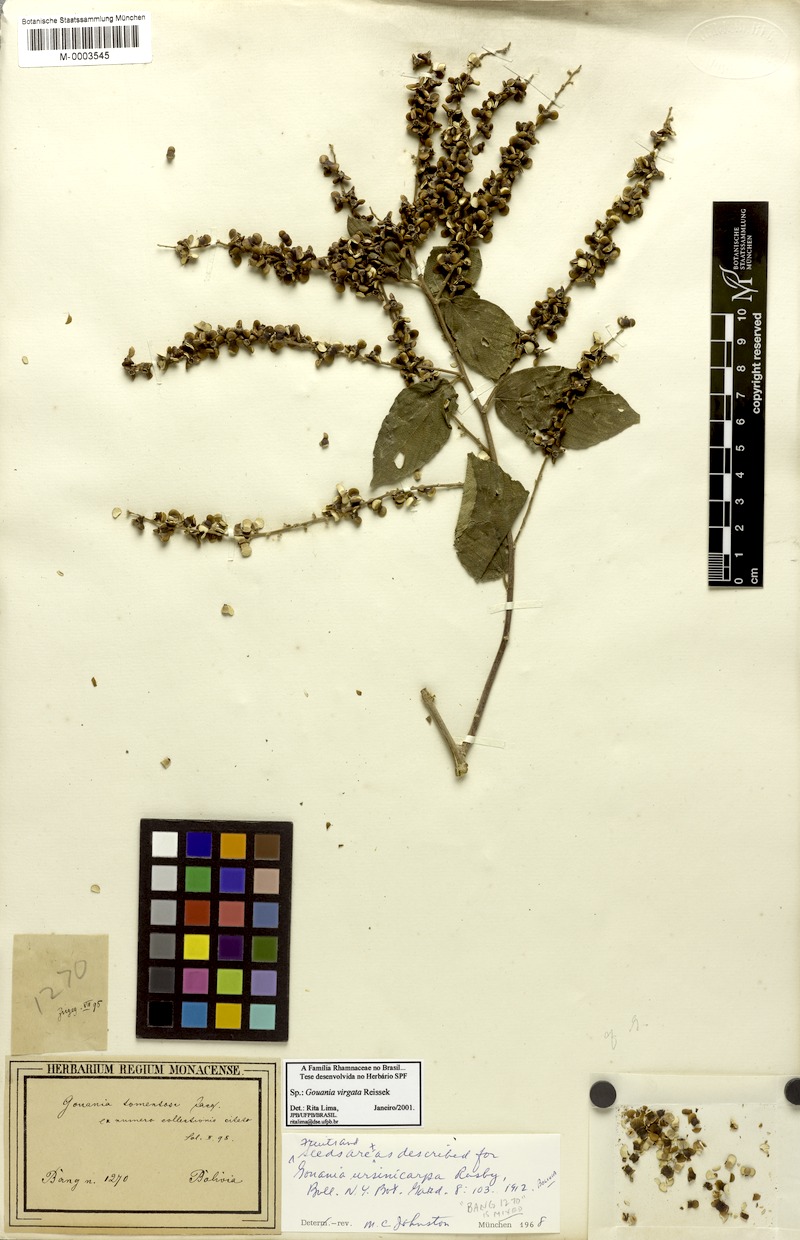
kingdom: Plantae
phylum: Tracheophyta
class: Magnoliopsida
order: Rosales
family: Rhamnaceae
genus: Gouania
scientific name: Gouania lupuloides
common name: Chewstick
